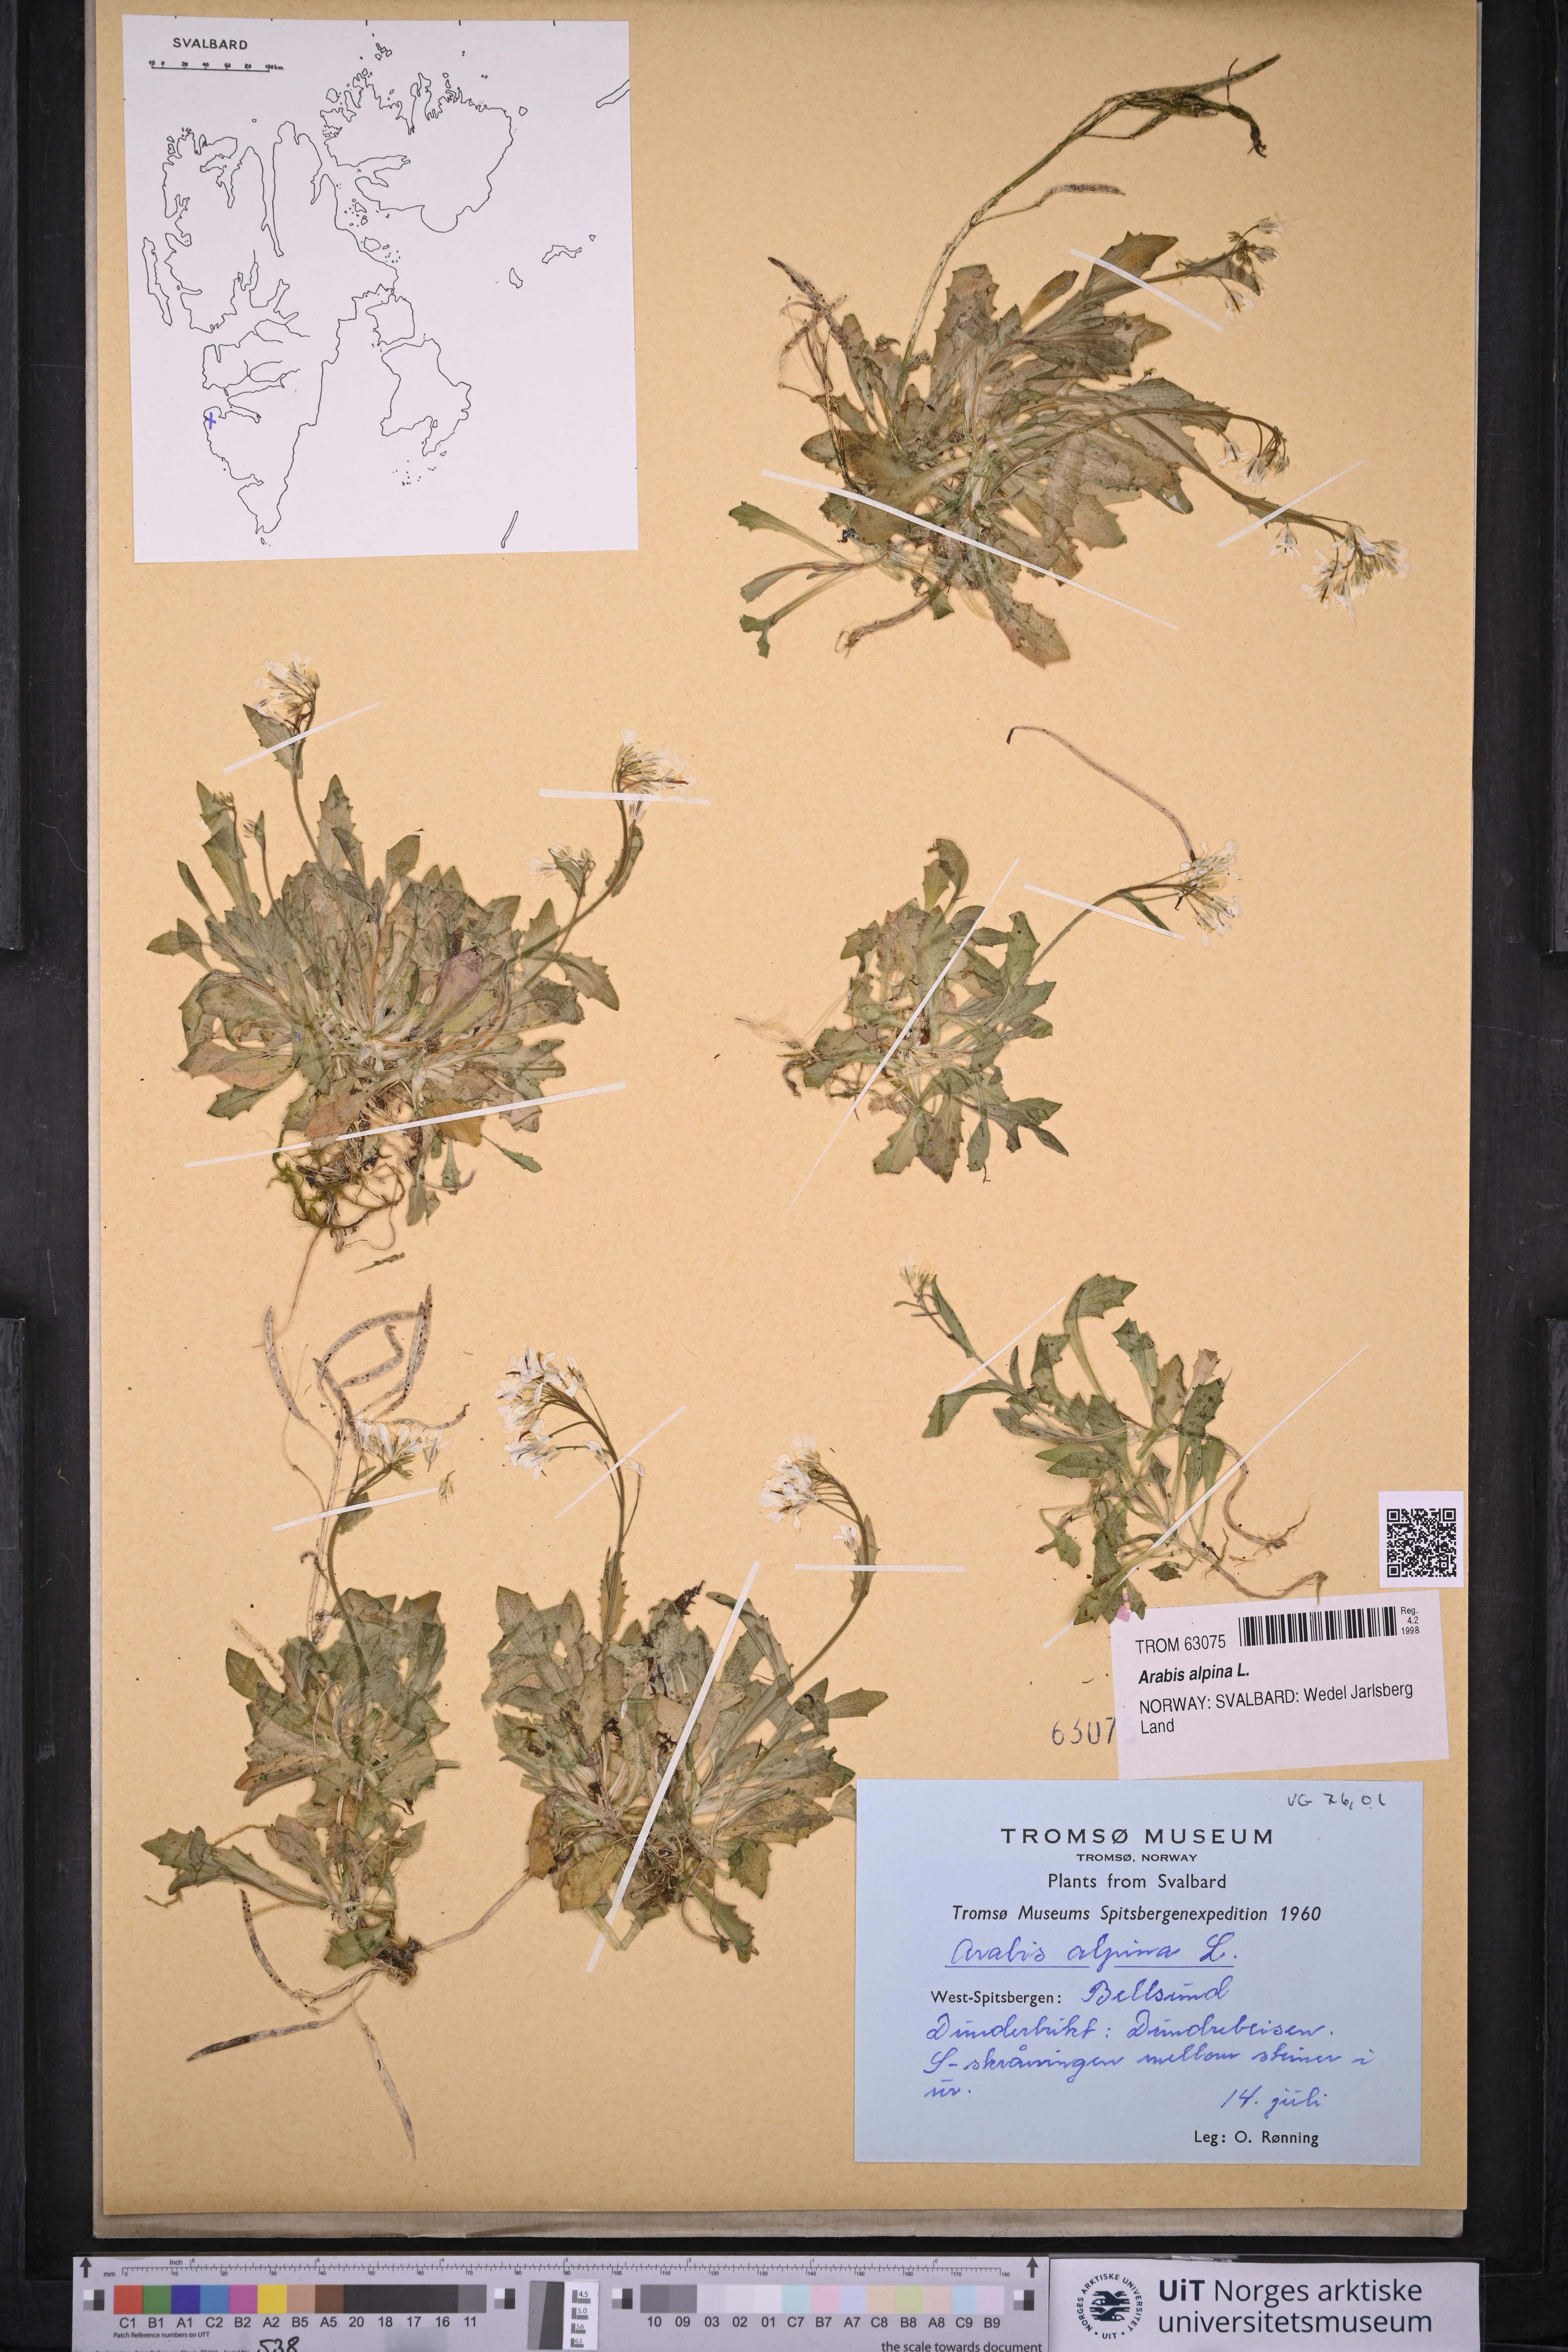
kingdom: Plantae
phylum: Tracheophyta
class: Magnoliopsida
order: Brassicales
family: Brassicaceae
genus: Arabis
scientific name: Arabis alpina
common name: Alpine rock-cress
